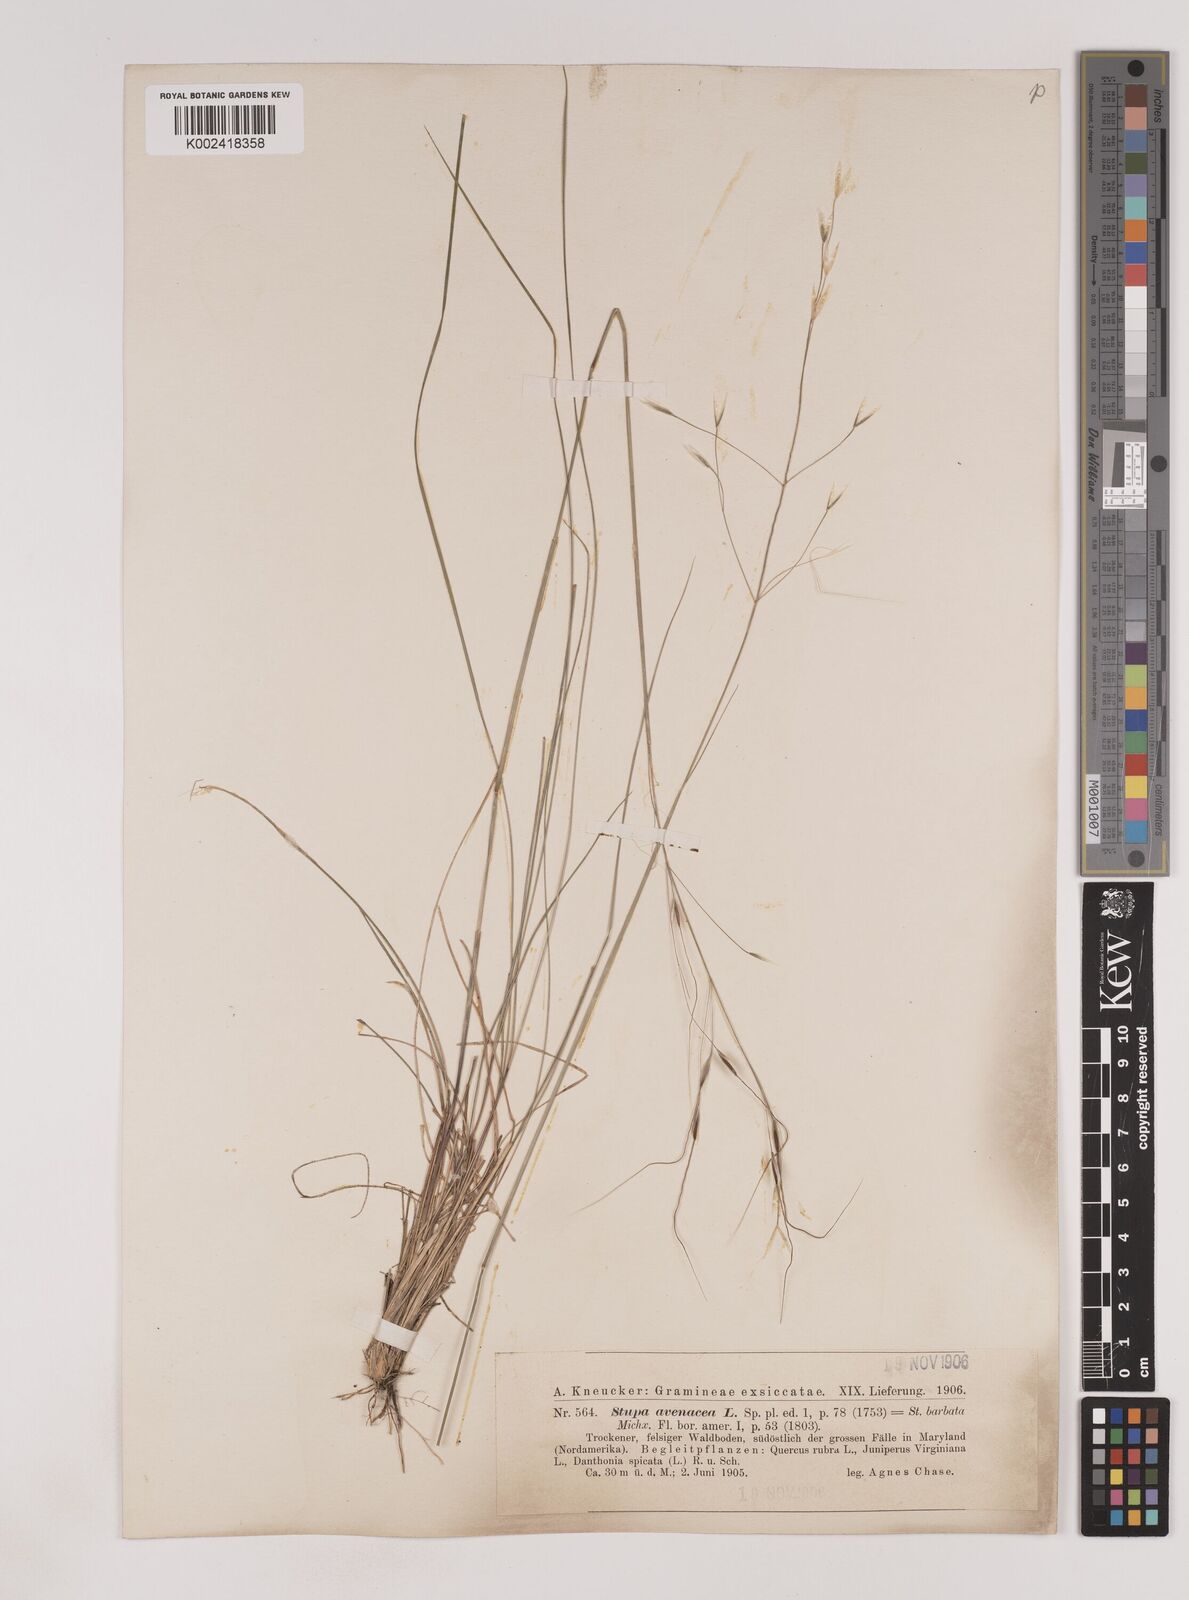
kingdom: Plantae
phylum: Tracheophyta
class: Liliopsida
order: Poales
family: Poaceae
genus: Piptochaetium
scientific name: Piptochaetium avenaceum
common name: Black bunchgrass
